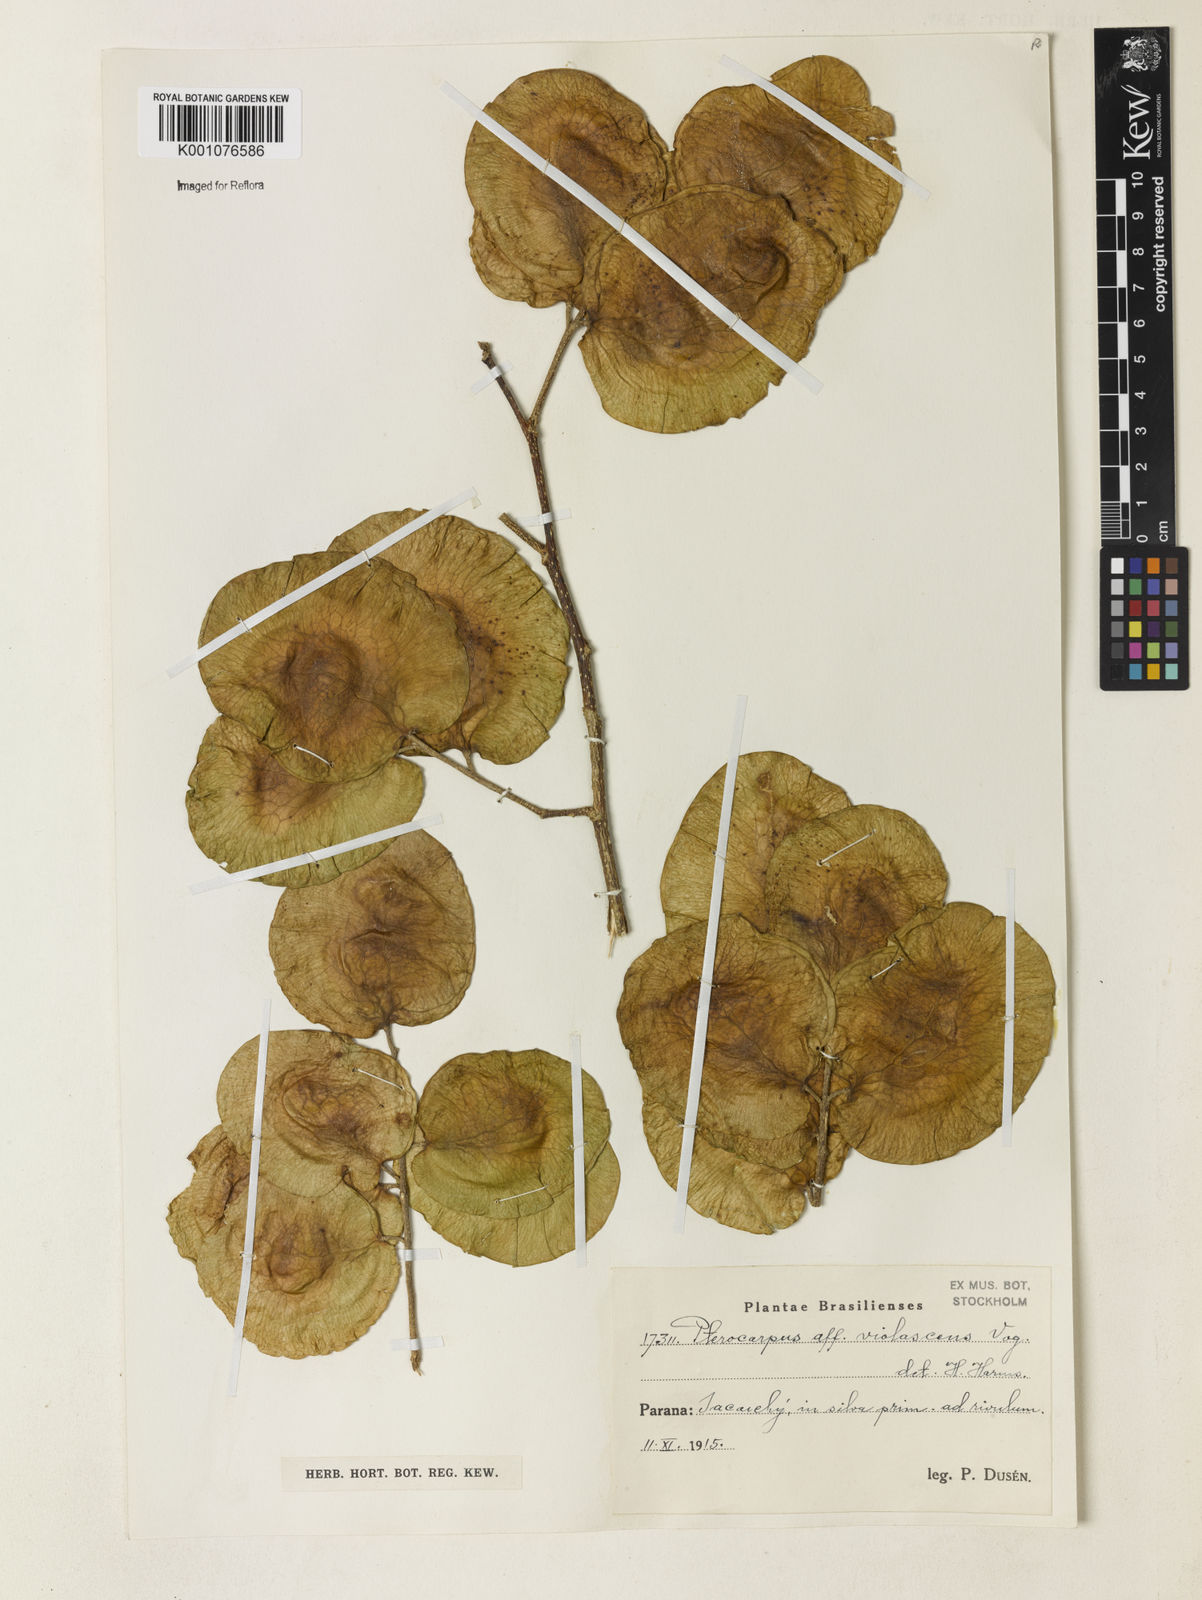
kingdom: Plantae
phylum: Tracheophyta
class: Magnoliopsida
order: Fabales
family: Fabaceae
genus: Pterocarpus
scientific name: Pterocarpus rohrii
